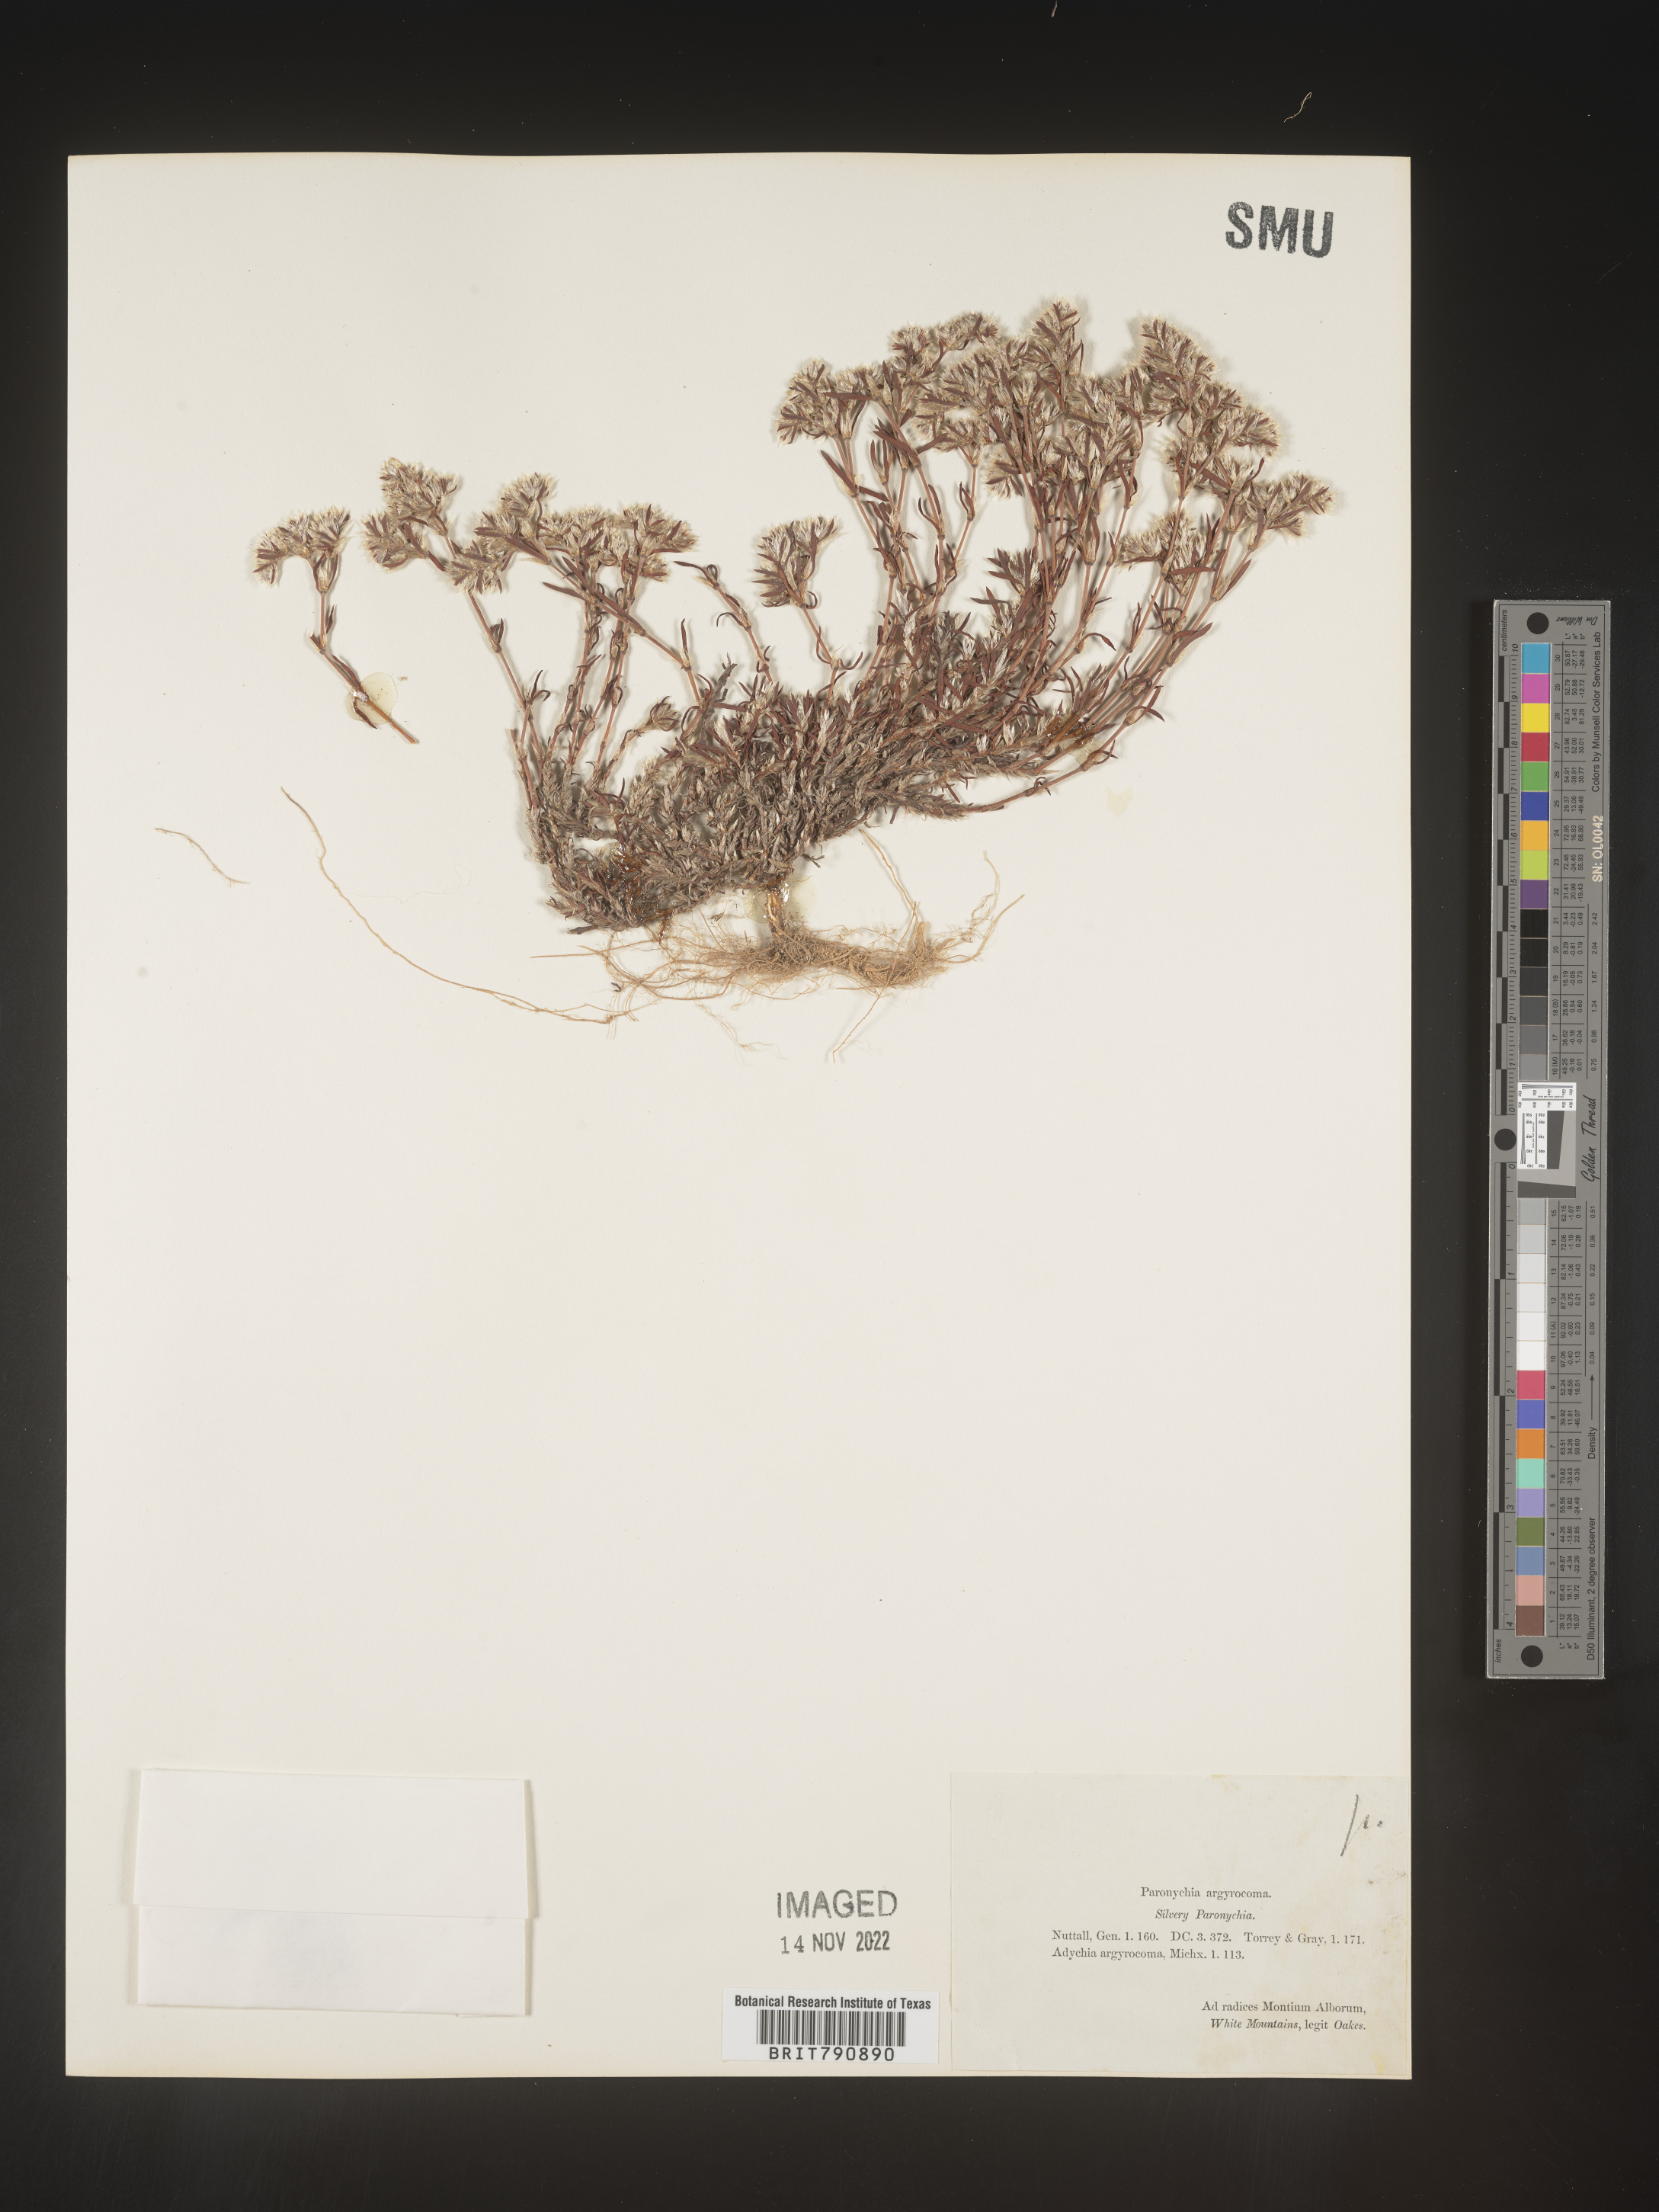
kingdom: Plantae
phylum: Tracheophyta
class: Magnoliopsida
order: Caryophyllales
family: Caryophyllaceae
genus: Paronychia
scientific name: Paronychia argyrocoma
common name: Silverling
